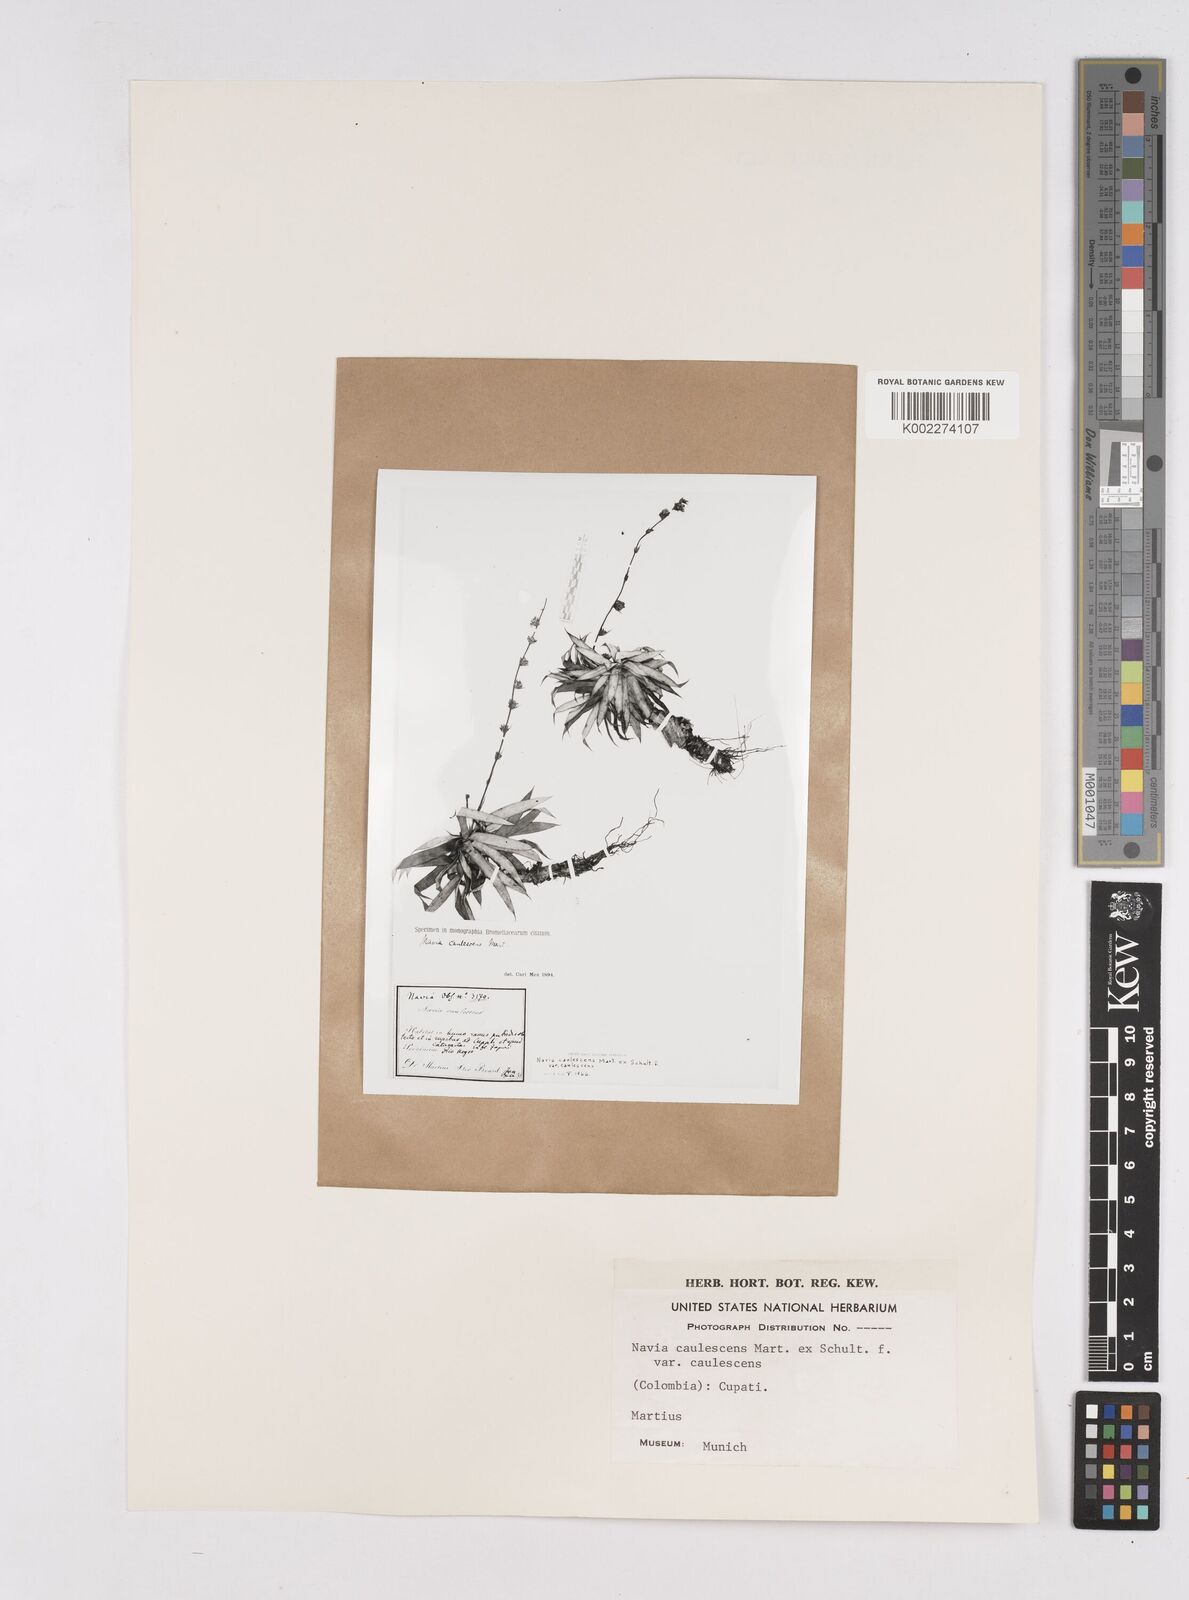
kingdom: Plantae
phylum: Tracheophyta
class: Liliopsida
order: Poales
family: Bromeliaceae
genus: Navia
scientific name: Navia caulescens
